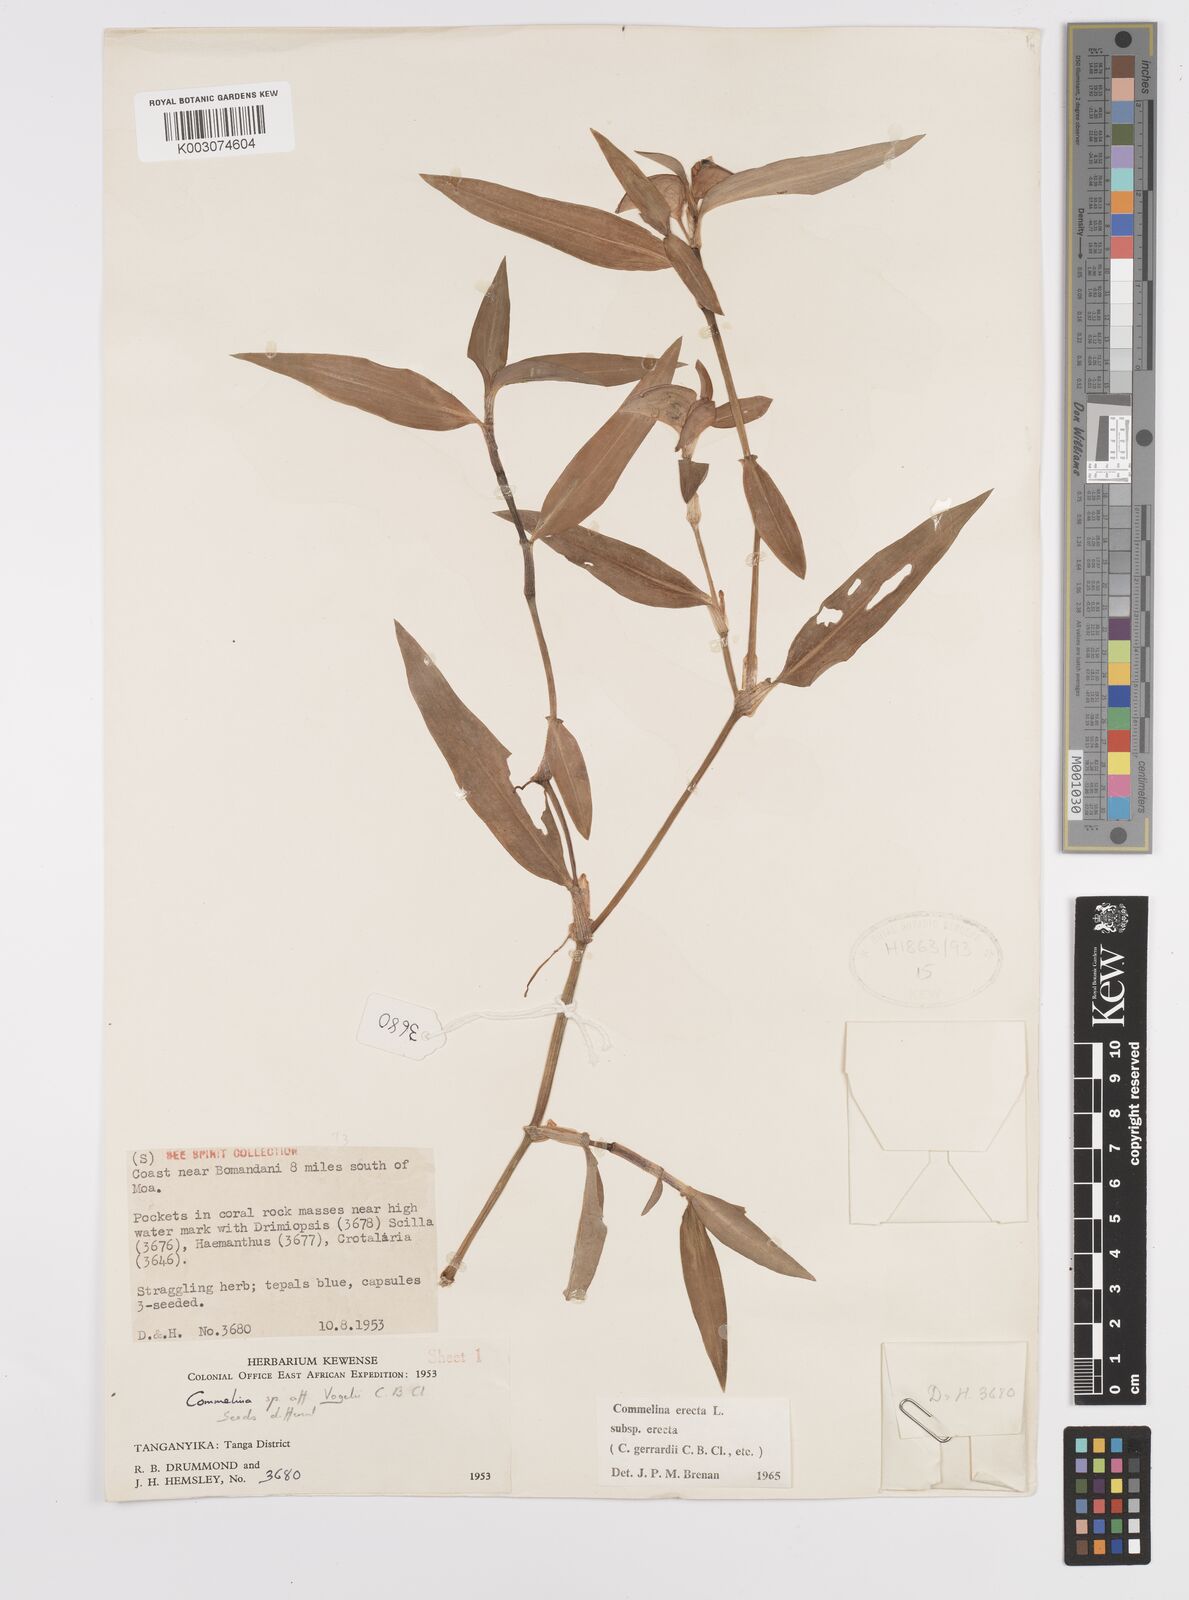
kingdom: Plantae
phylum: Tracheophyta
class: Liliopsida
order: Commelinales
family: Commelinaceae
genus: Commelina
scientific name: Commelina erecta
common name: Blousel blommetjie
